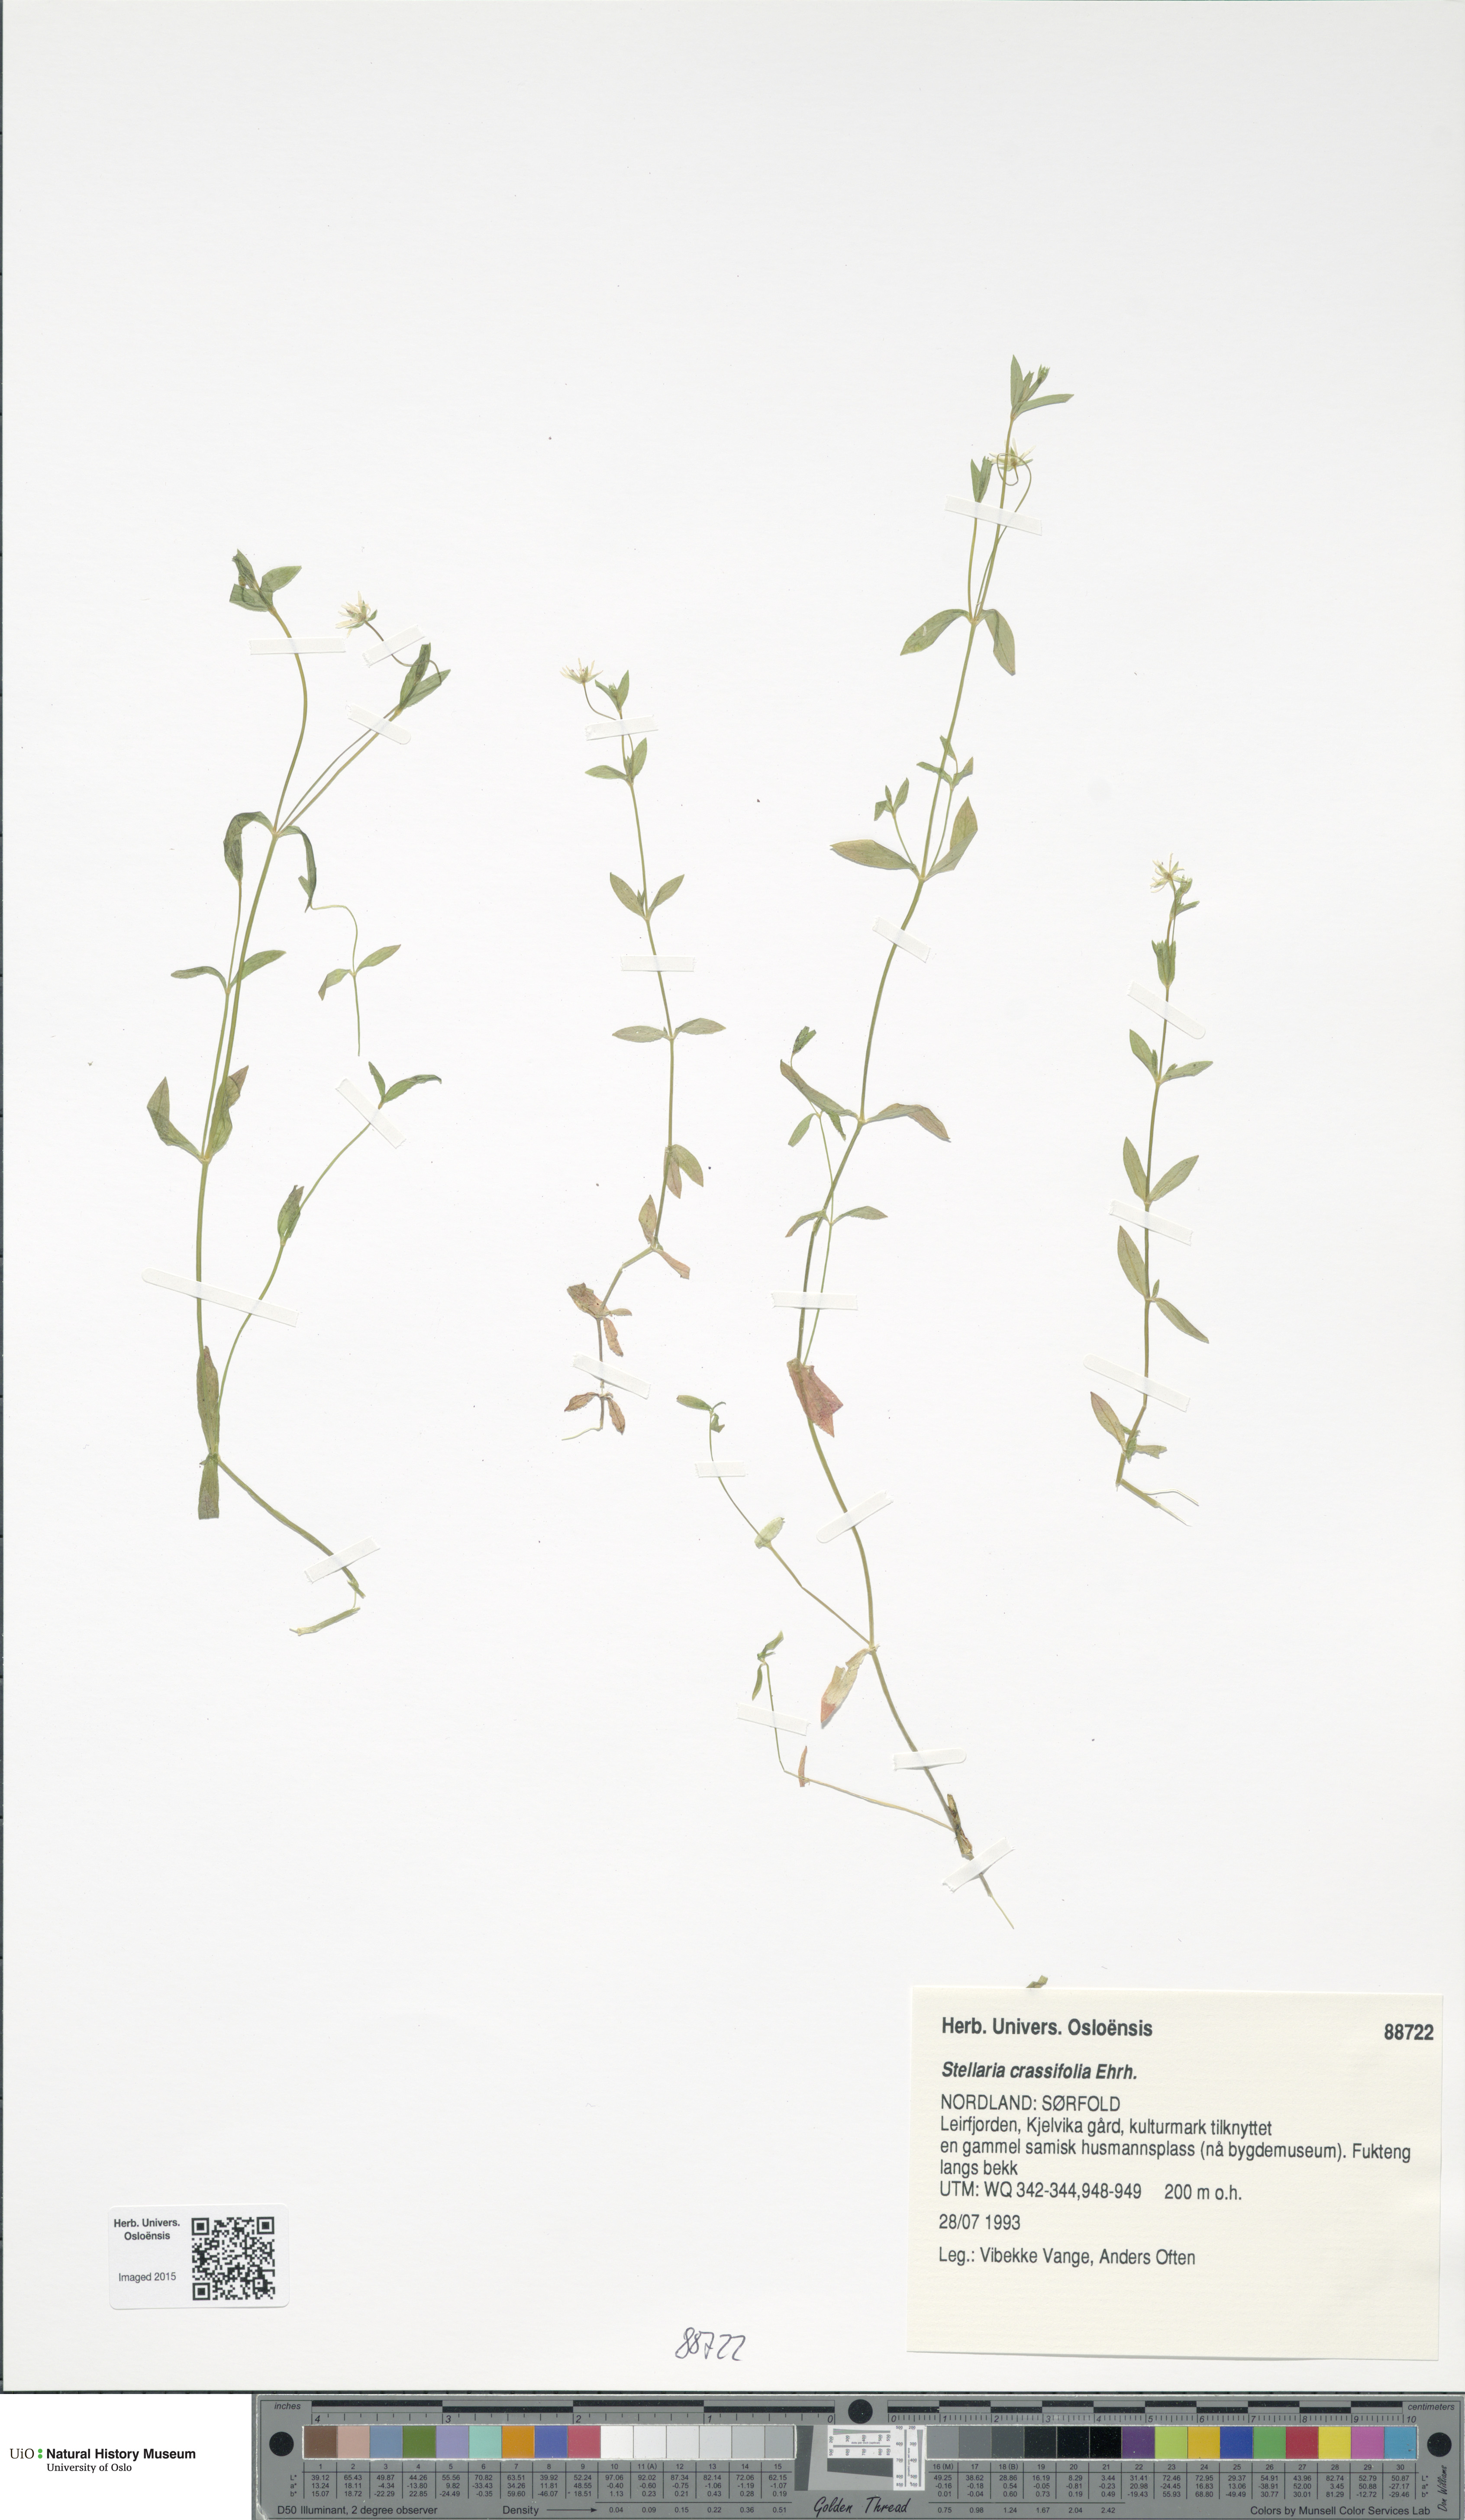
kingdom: Plantae
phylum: Tracheophyta
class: Magnoliopsida
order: Caryophyllales
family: Caryophyllaceae
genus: Stellaria
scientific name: Stellaria crassifolia
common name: Fleshy starwort
